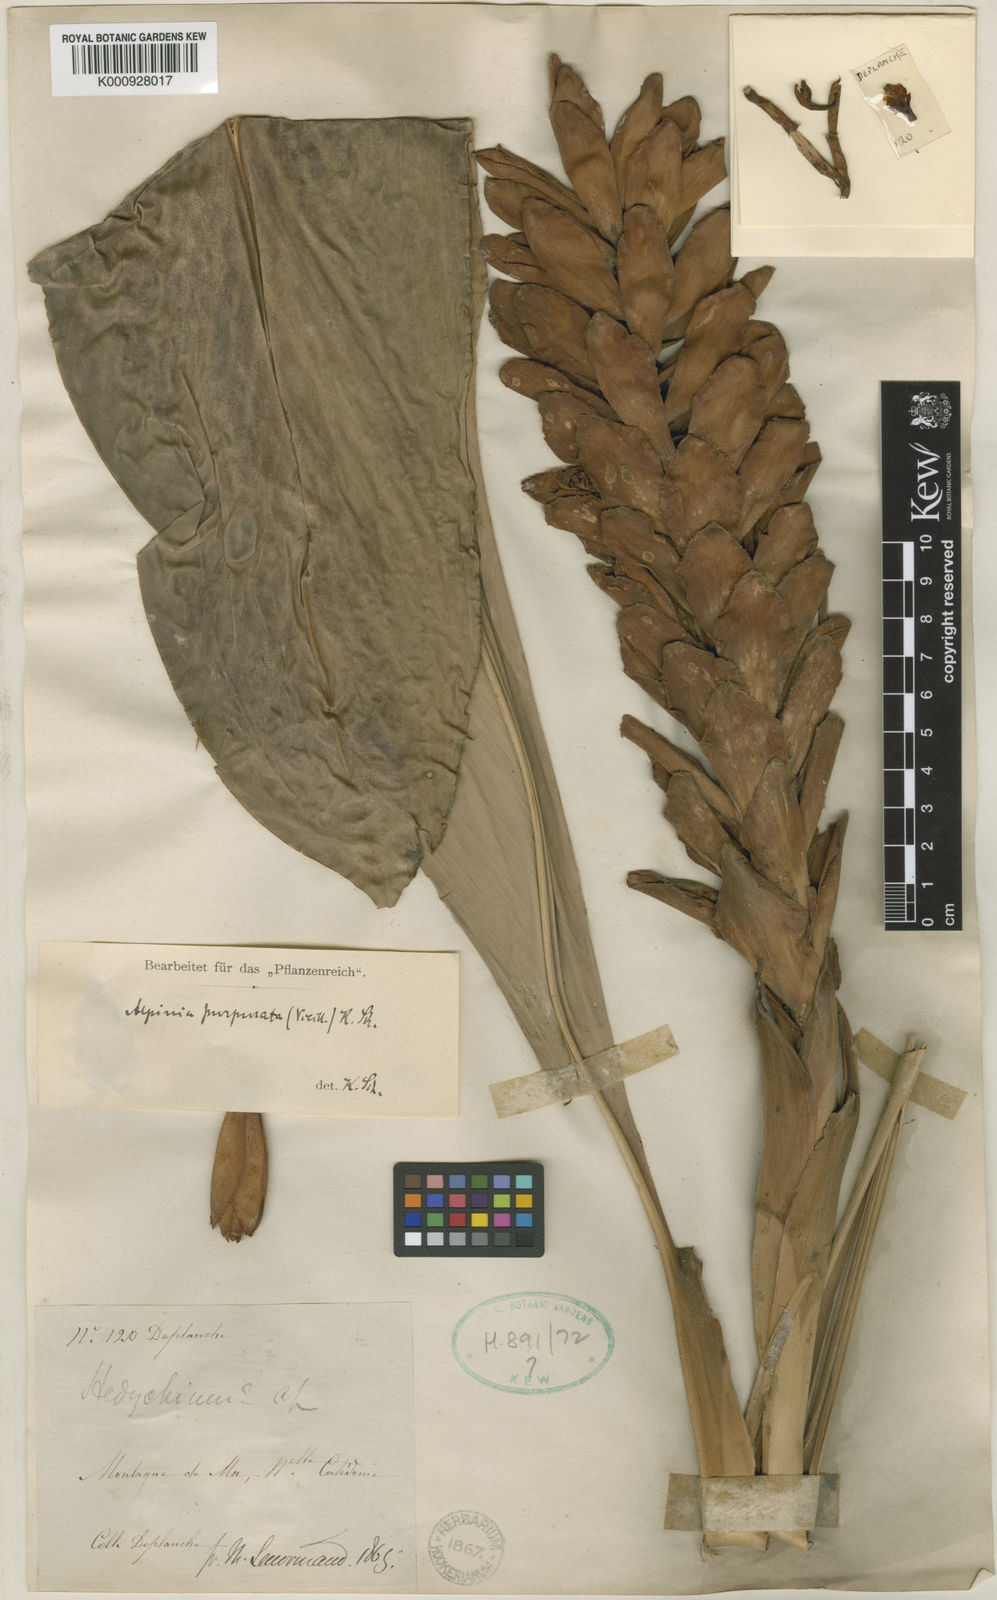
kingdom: Plantae
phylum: Tracheophyta
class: Liliopsida
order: Zingiberales
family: Zingiberaceae
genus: Alpinia
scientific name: Alpinia purpurata
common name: Red ginger
